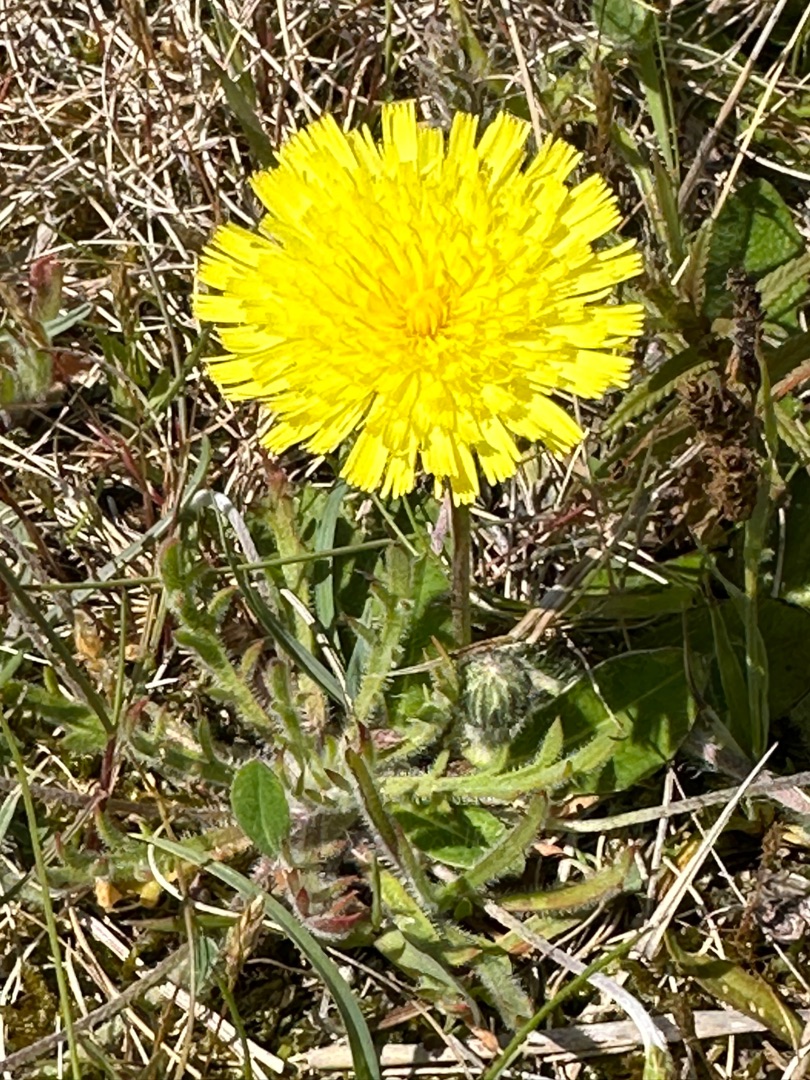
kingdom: Plantae
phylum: Tracheophyta
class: Magnoliopsida
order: Asterales
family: Asteraceae
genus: Pilosella
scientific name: Pilosella officinarum
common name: Håret høgeurt
